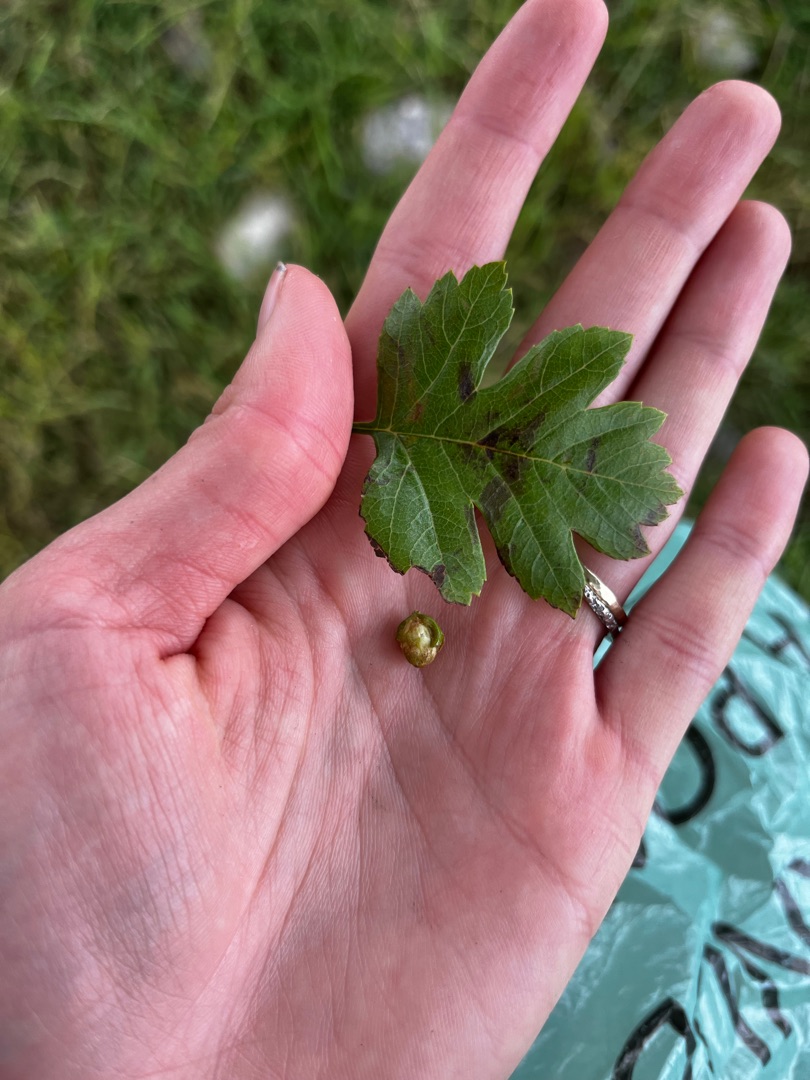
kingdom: Plantae
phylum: Tracheophyta
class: Magnoliopsida
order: Rosales
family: Rosaceae
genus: Crataegus
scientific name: Crataegus monogyna
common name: Engriflet hvidtjørn
